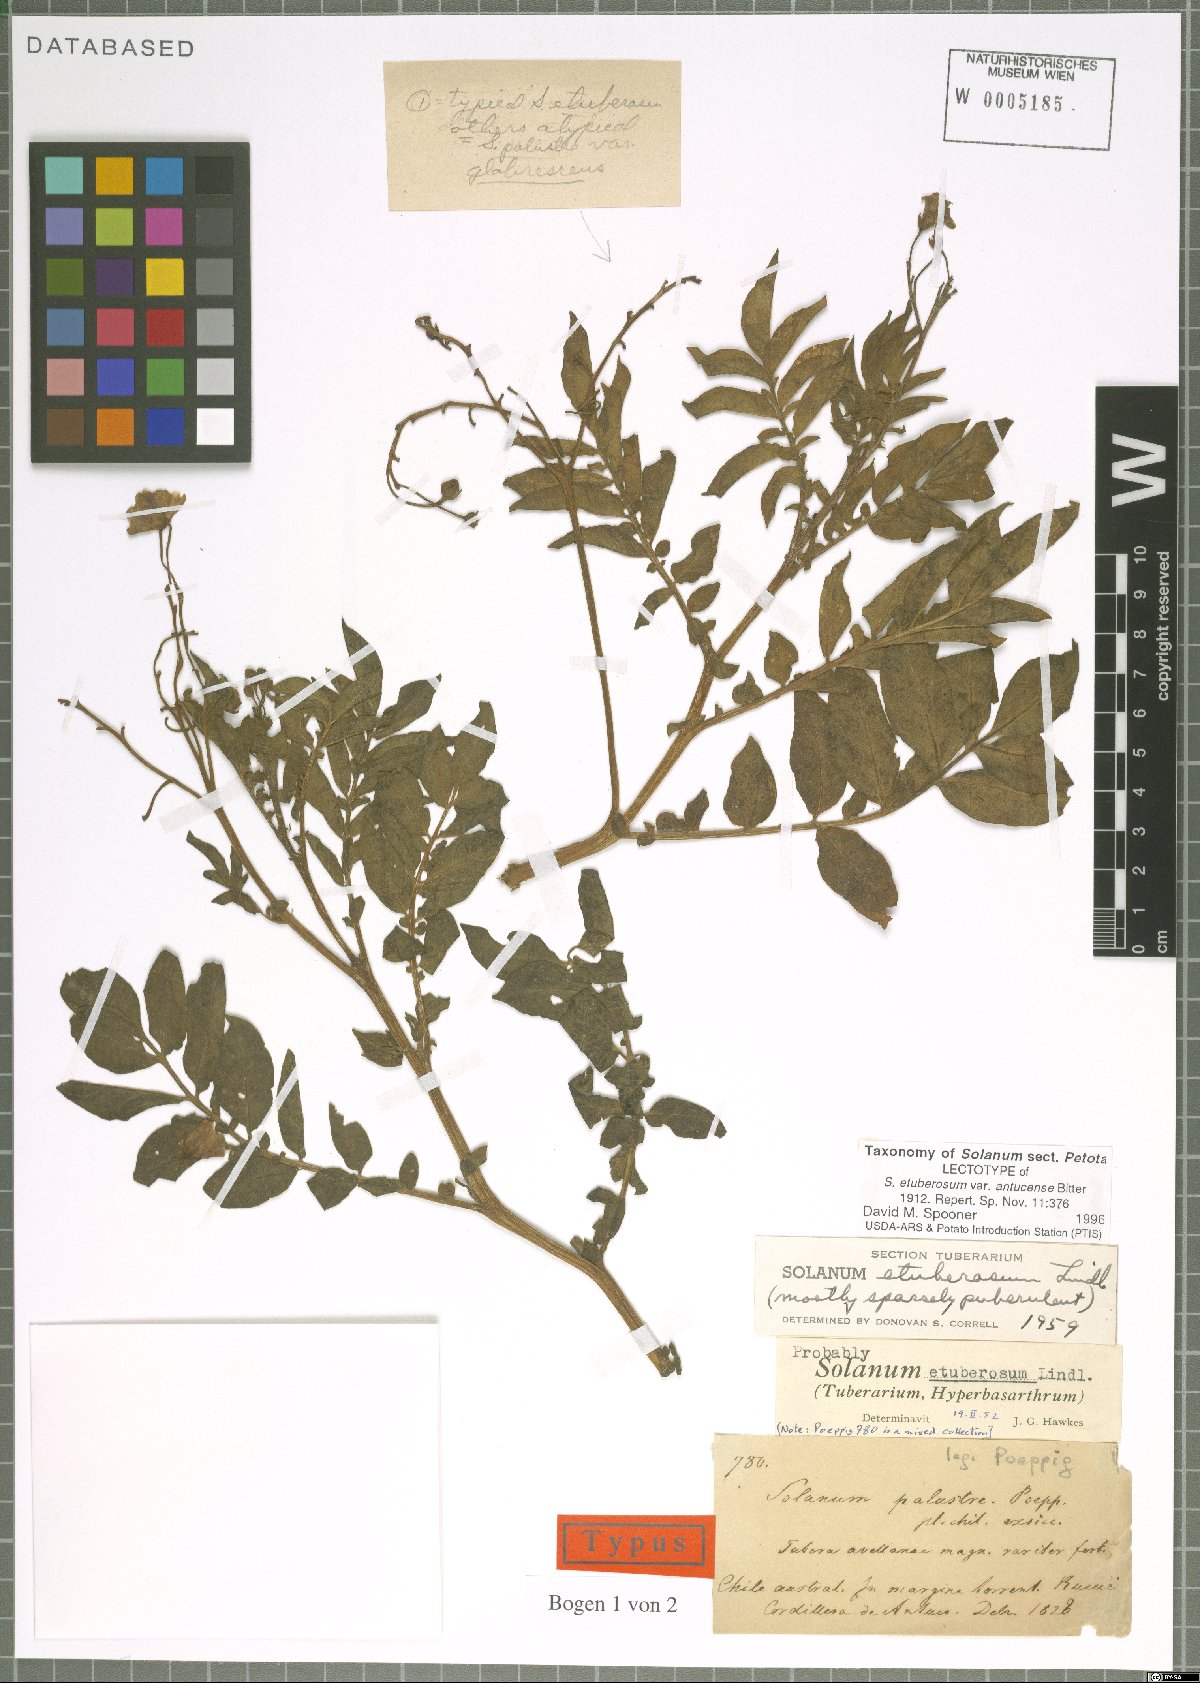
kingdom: Plantae
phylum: Tracheophyta
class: Magnoliopsida
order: Solanales
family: Solanaceae
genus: Solanum
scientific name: Solanum etuberosum
